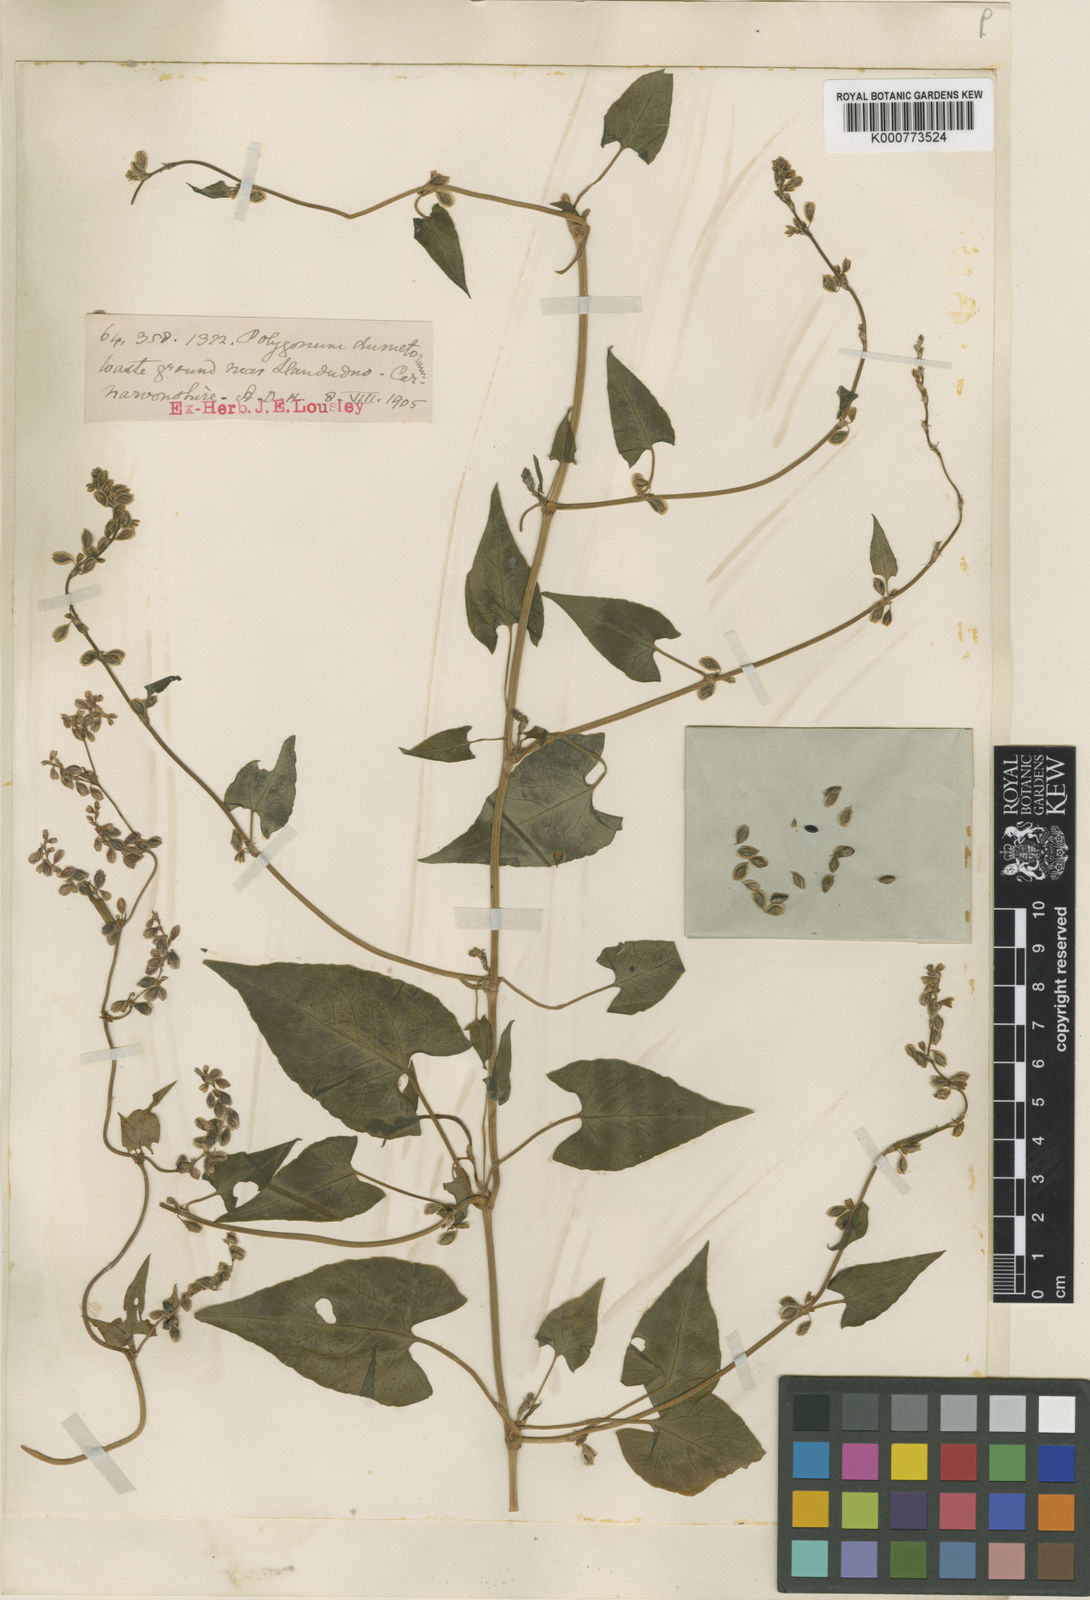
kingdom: Plantae
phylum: Tracheophyta
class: Magnoliopsida
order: Caryophyllales
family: Polygonaceae
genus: Fallopia
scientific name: Fallopia dumetorum
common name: Copse-bindweed
